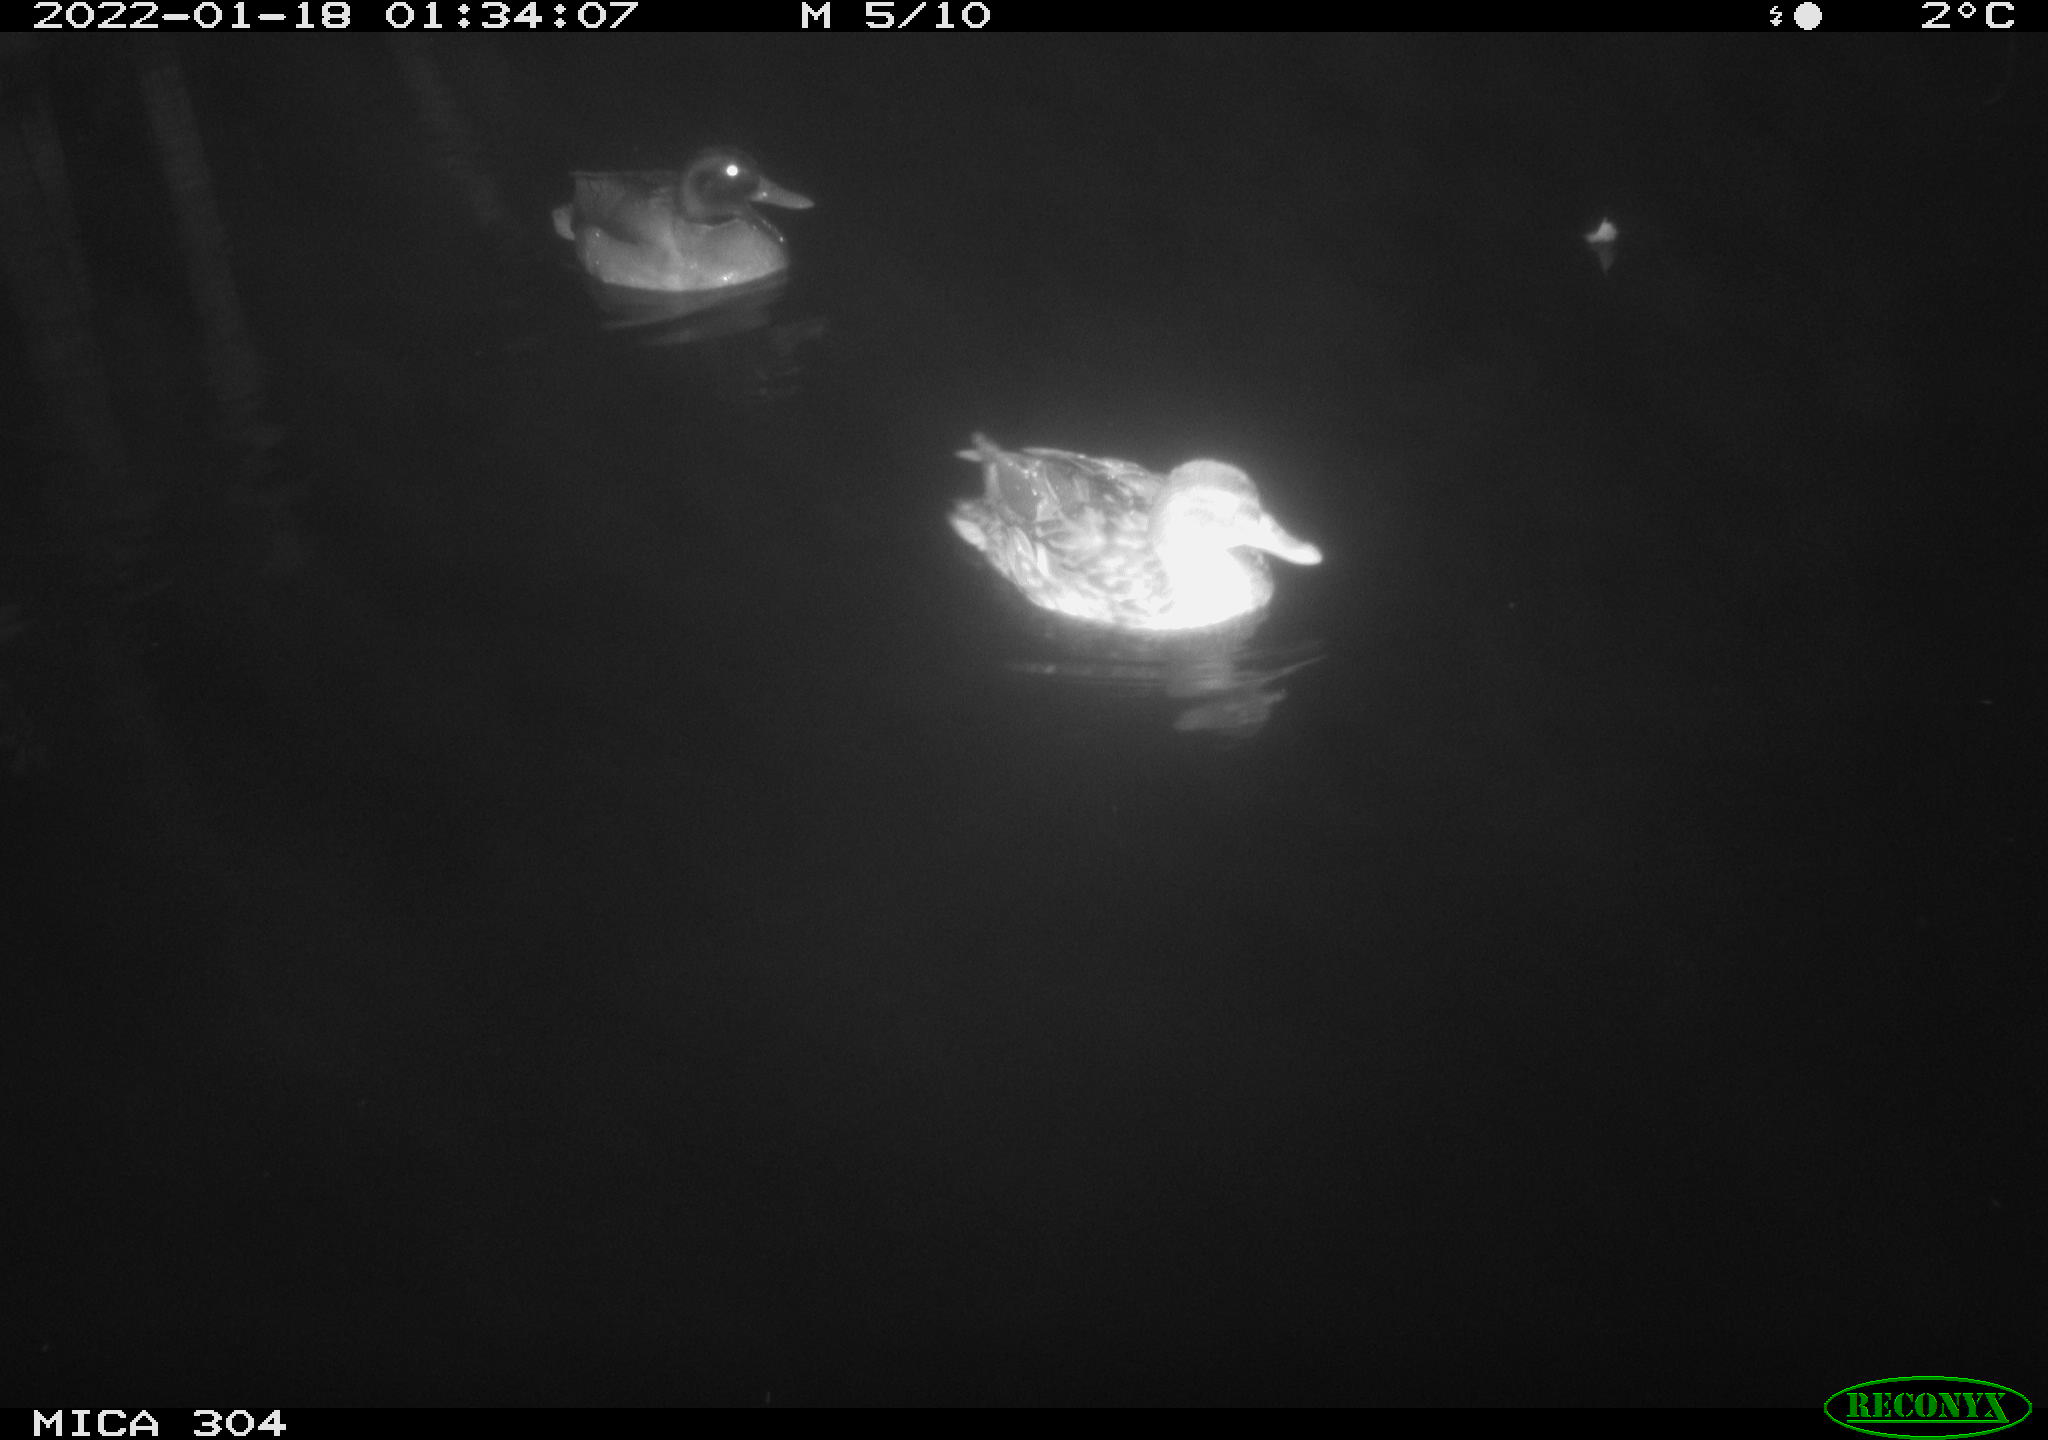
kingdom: Animalia
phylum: Chordata
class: Aves
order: Anseriformes
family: Anatidae
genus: Anas
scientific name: Anas platyrhynchos
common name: Mallard
